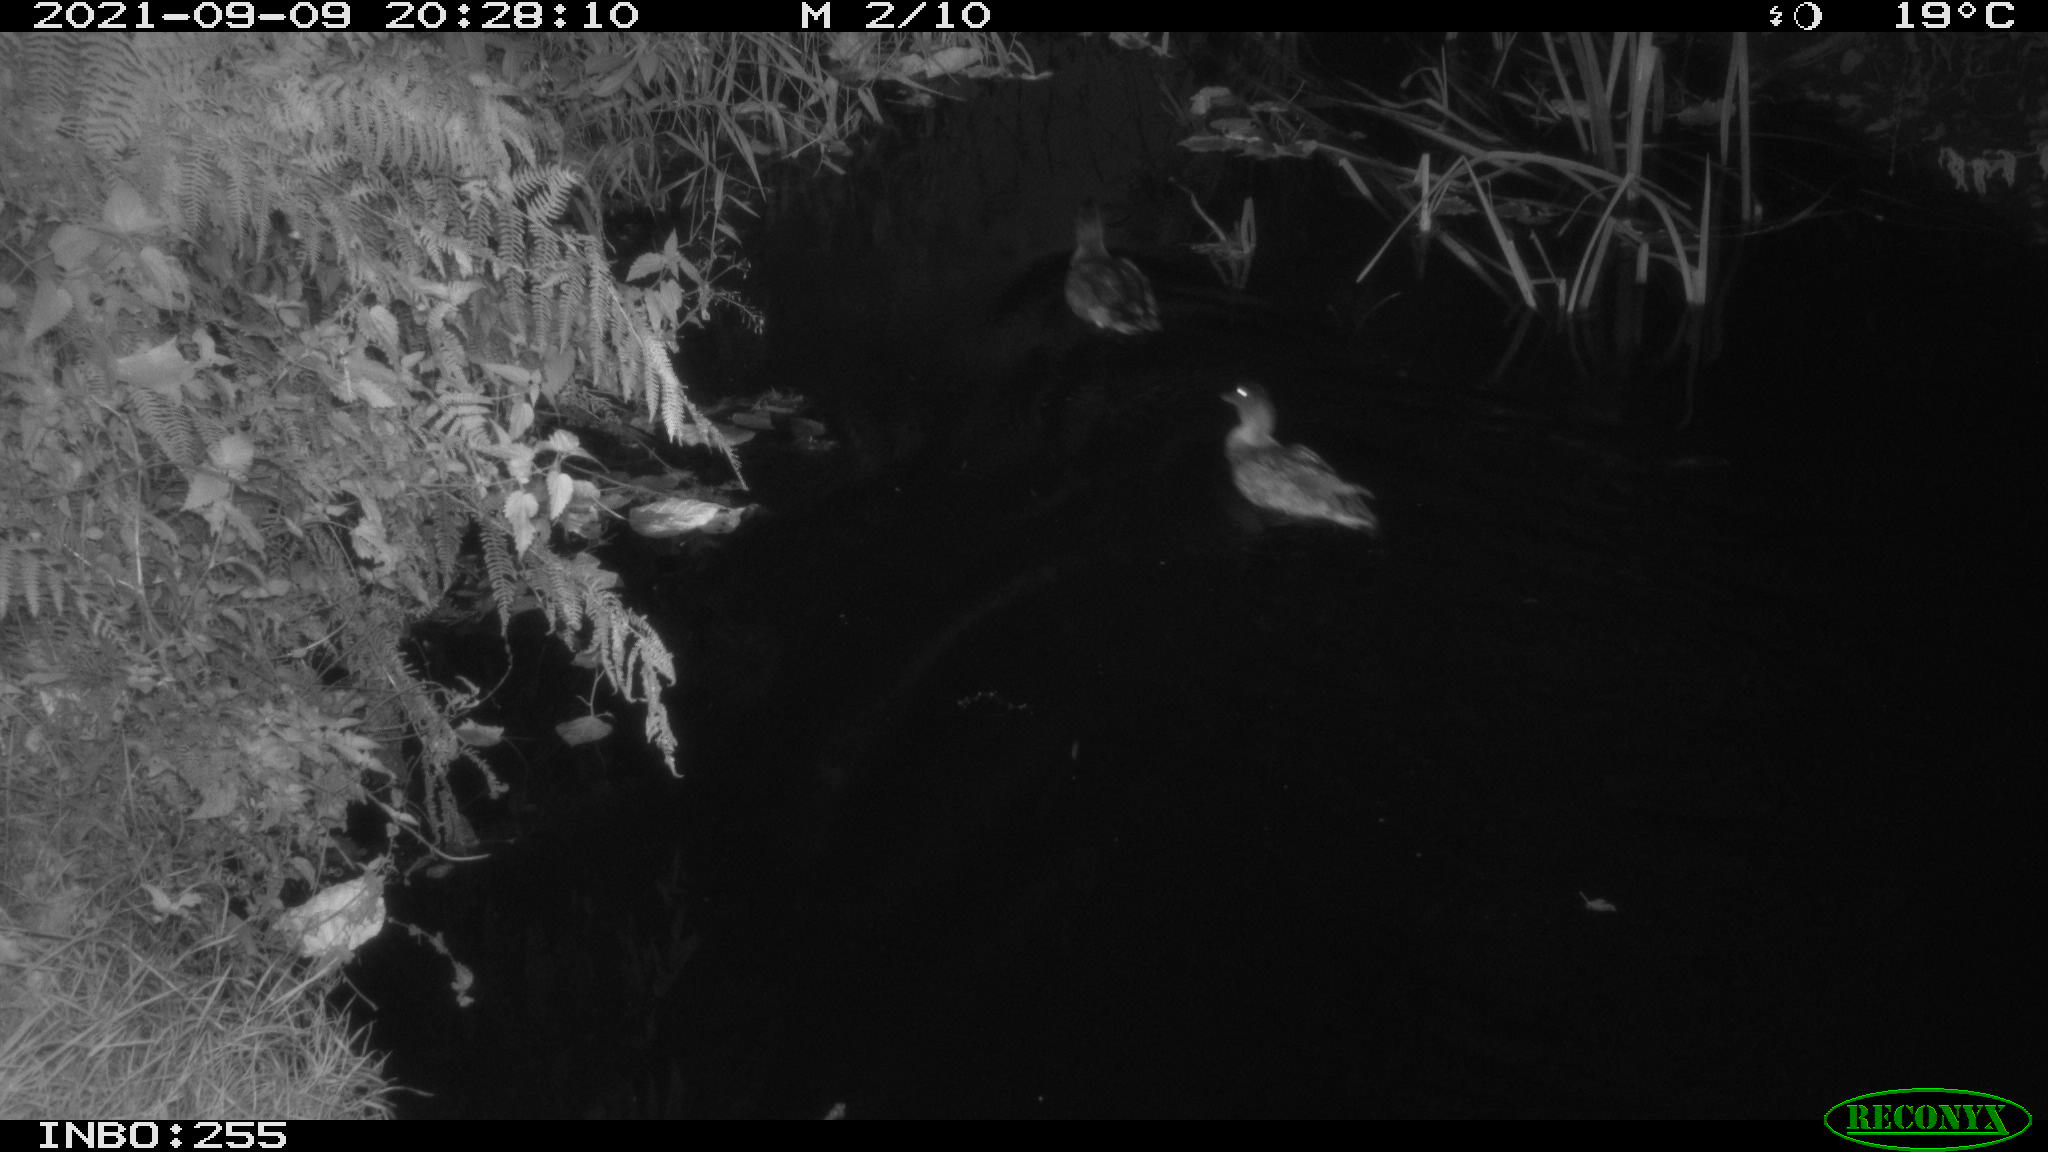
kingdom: Animalia
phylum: Chordata
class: Aves
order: Anseriformes
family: Anatidae
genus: Anas
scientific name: Anas platyrhynchos
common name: Mallard
